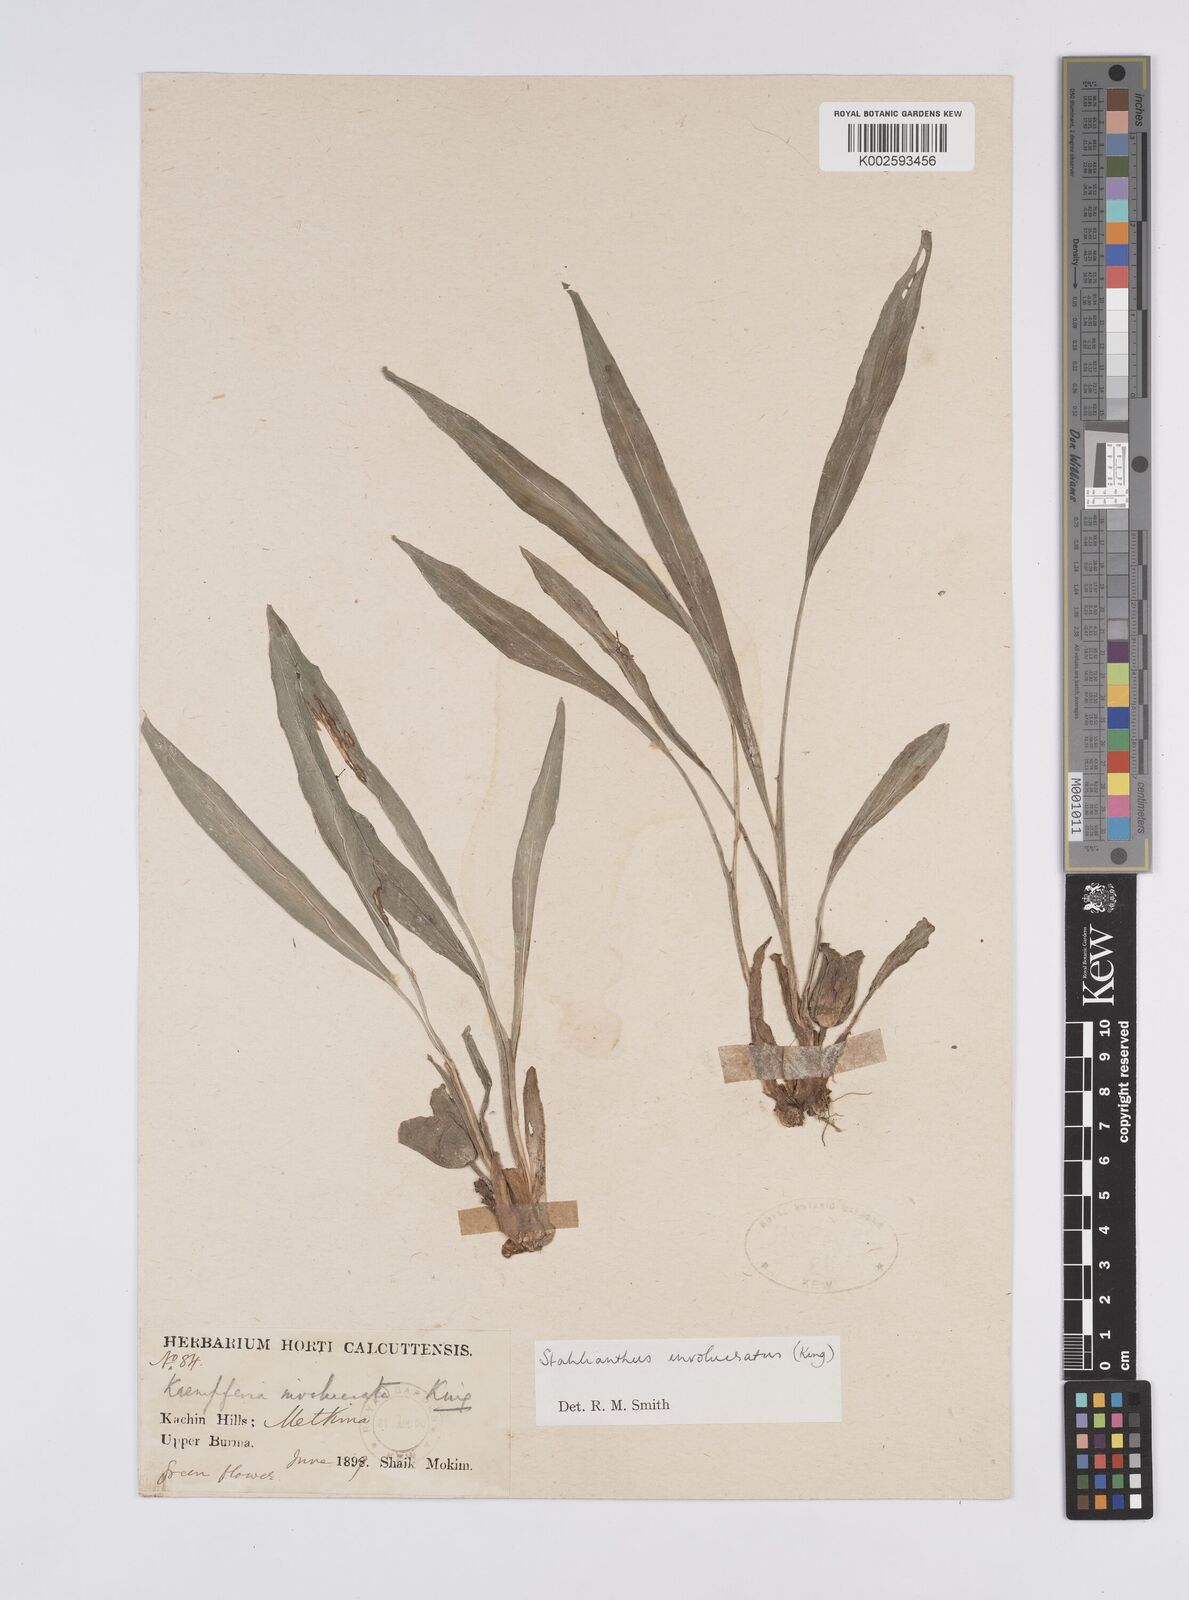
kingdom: Plantae
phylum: Tracheophyta
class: Liliopsida
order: Zingiberales
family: Zingiberaceae
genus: Curcuma
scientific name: Curcuma involucrata
